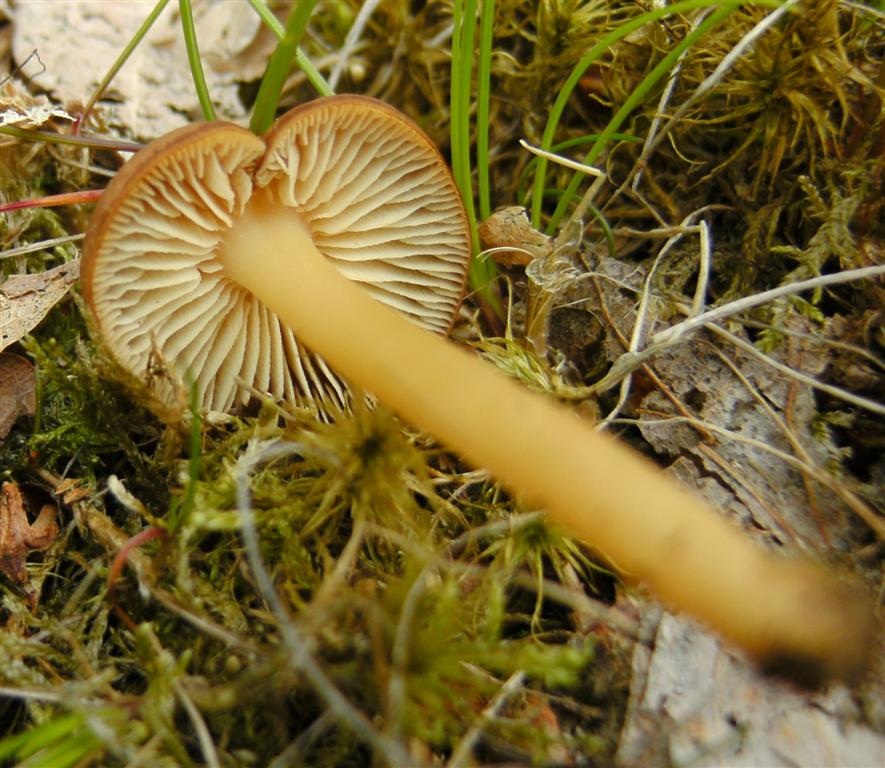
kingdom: Fungi
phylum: Basidiomycota
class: Agaricomycetes
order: Agaricales
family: Omphalotaceae
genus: Gymnopus
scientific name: Gymnopus ocior
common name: mørk fladhat
